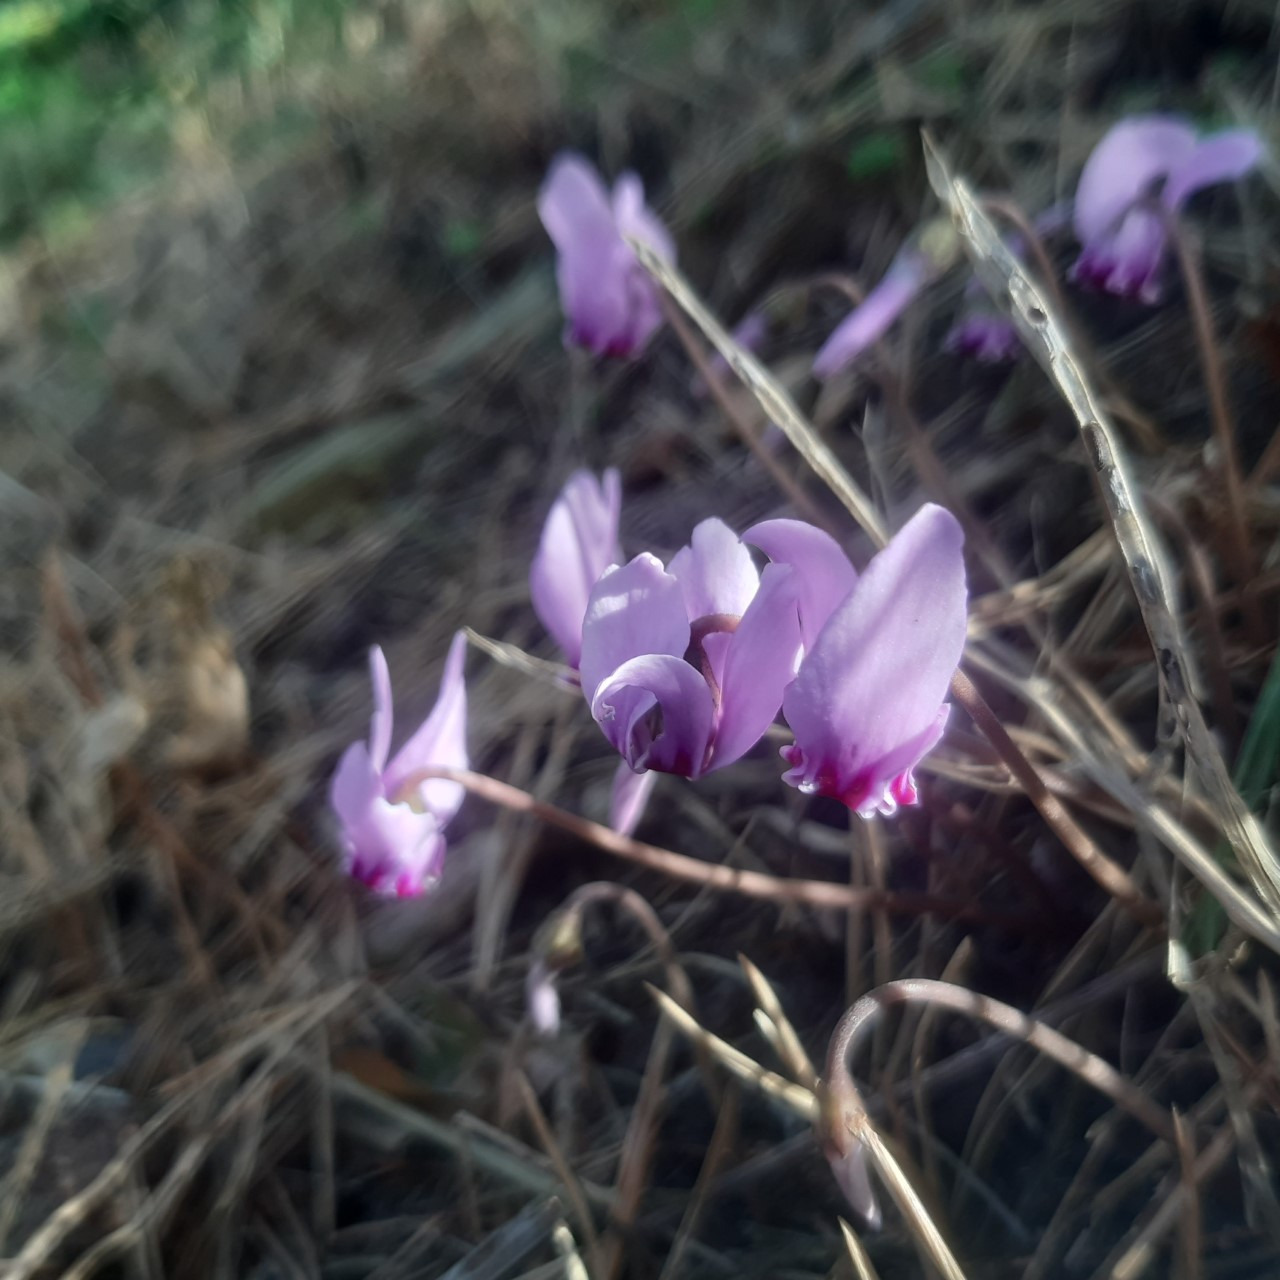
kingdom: Plantae
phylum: Tracheophyta
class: Magnoliopsida
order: Ericales
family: Primulaceae
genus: Cyclamen
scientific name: Cyclamen hederifolium
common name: Vedbendbladet alpeviol
